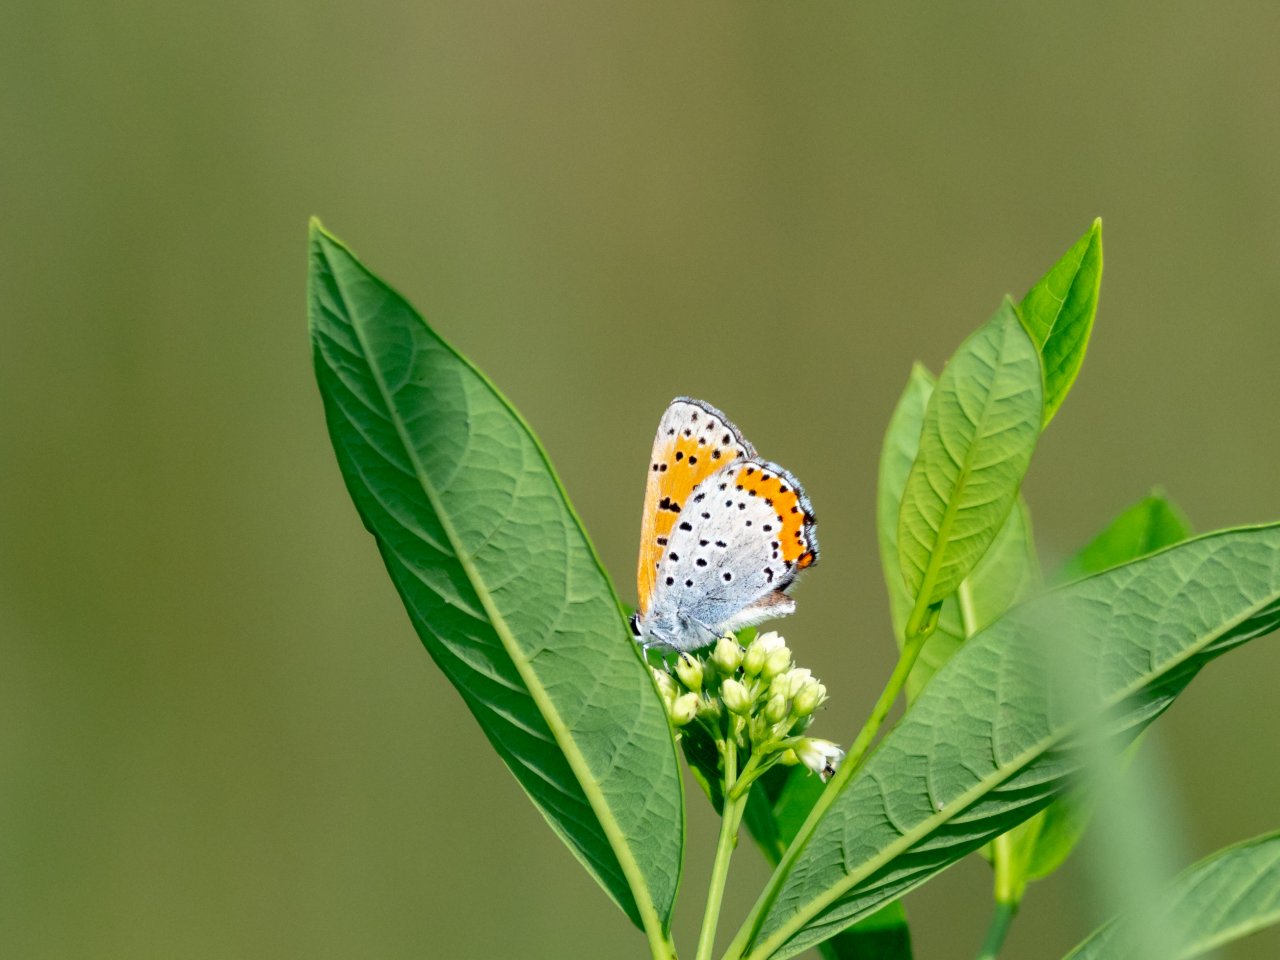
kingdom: Animalia
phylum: Arthropoda
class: Insecta
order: Lepidoptera
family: Sesiidae
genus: Sesia
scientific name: Sesia Lycaena hyllus
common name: Bronze Copper
